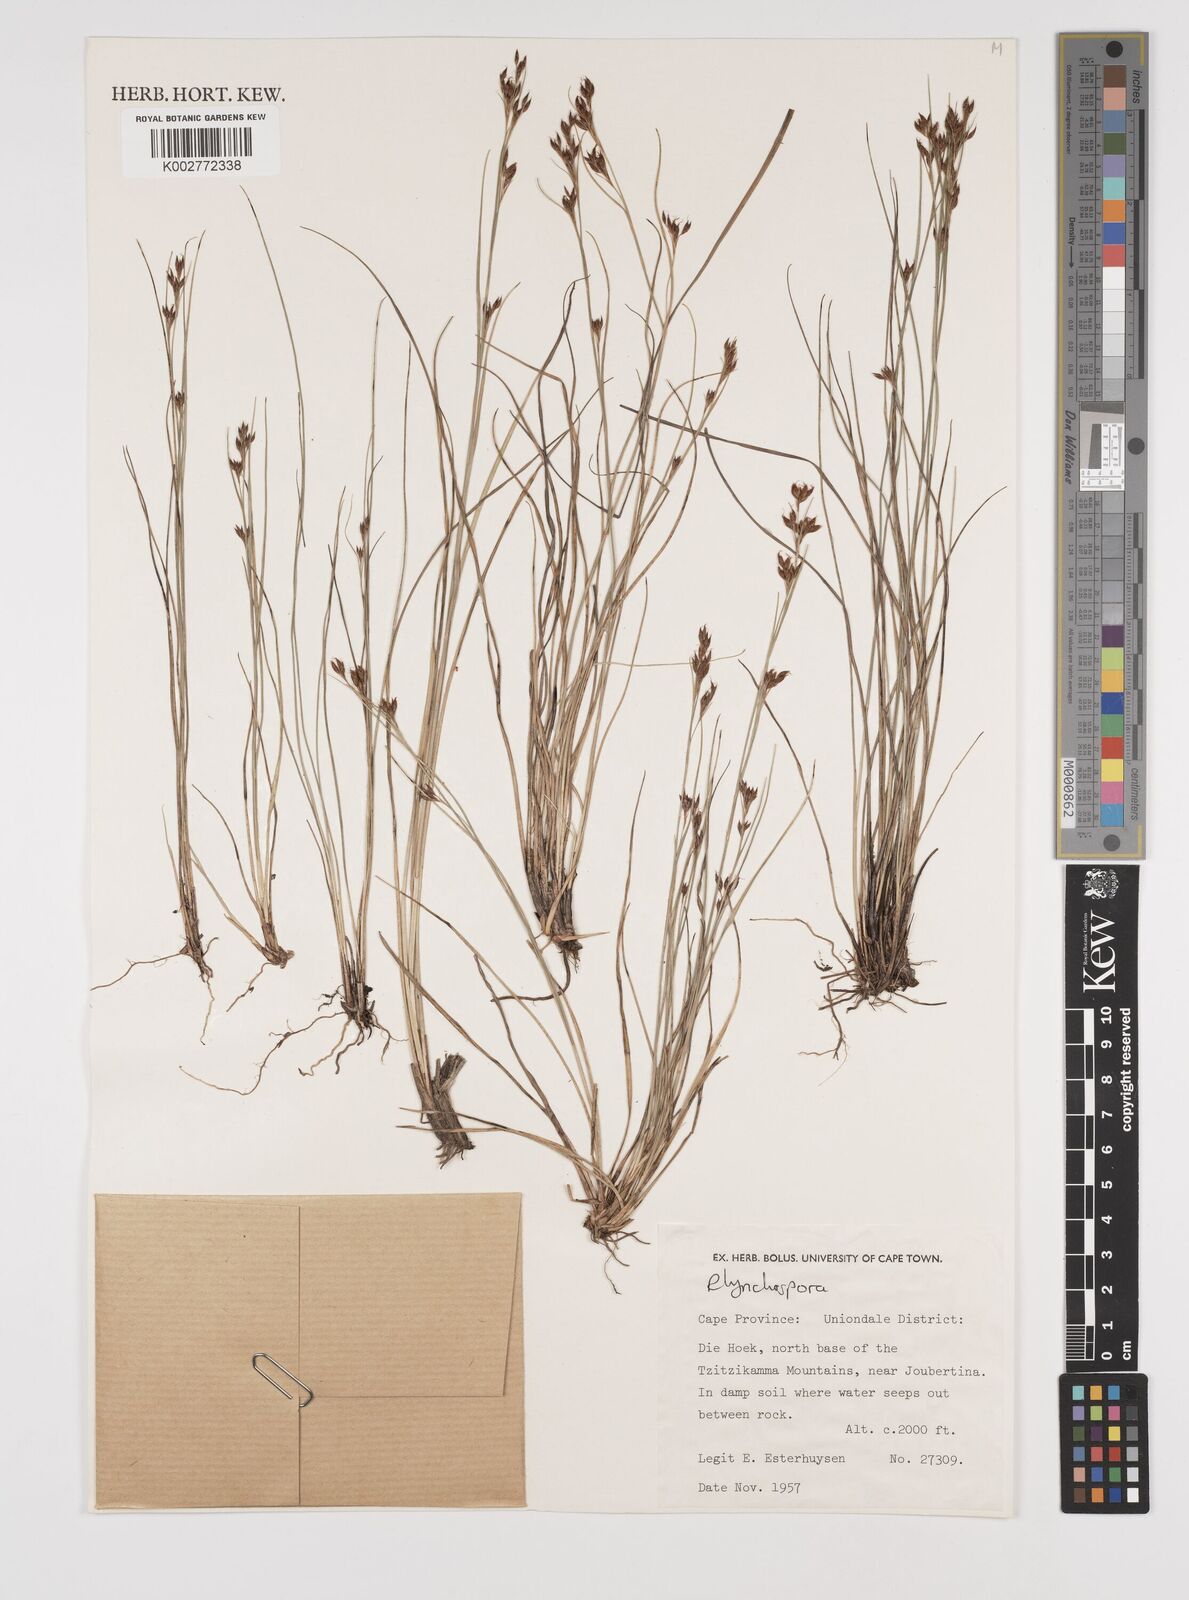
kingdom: Plantae
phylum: Tracheophyta
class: Liliopsida
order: Poales
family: Cyperaceae
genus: Rhynchospora
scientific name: Rhynchospora
